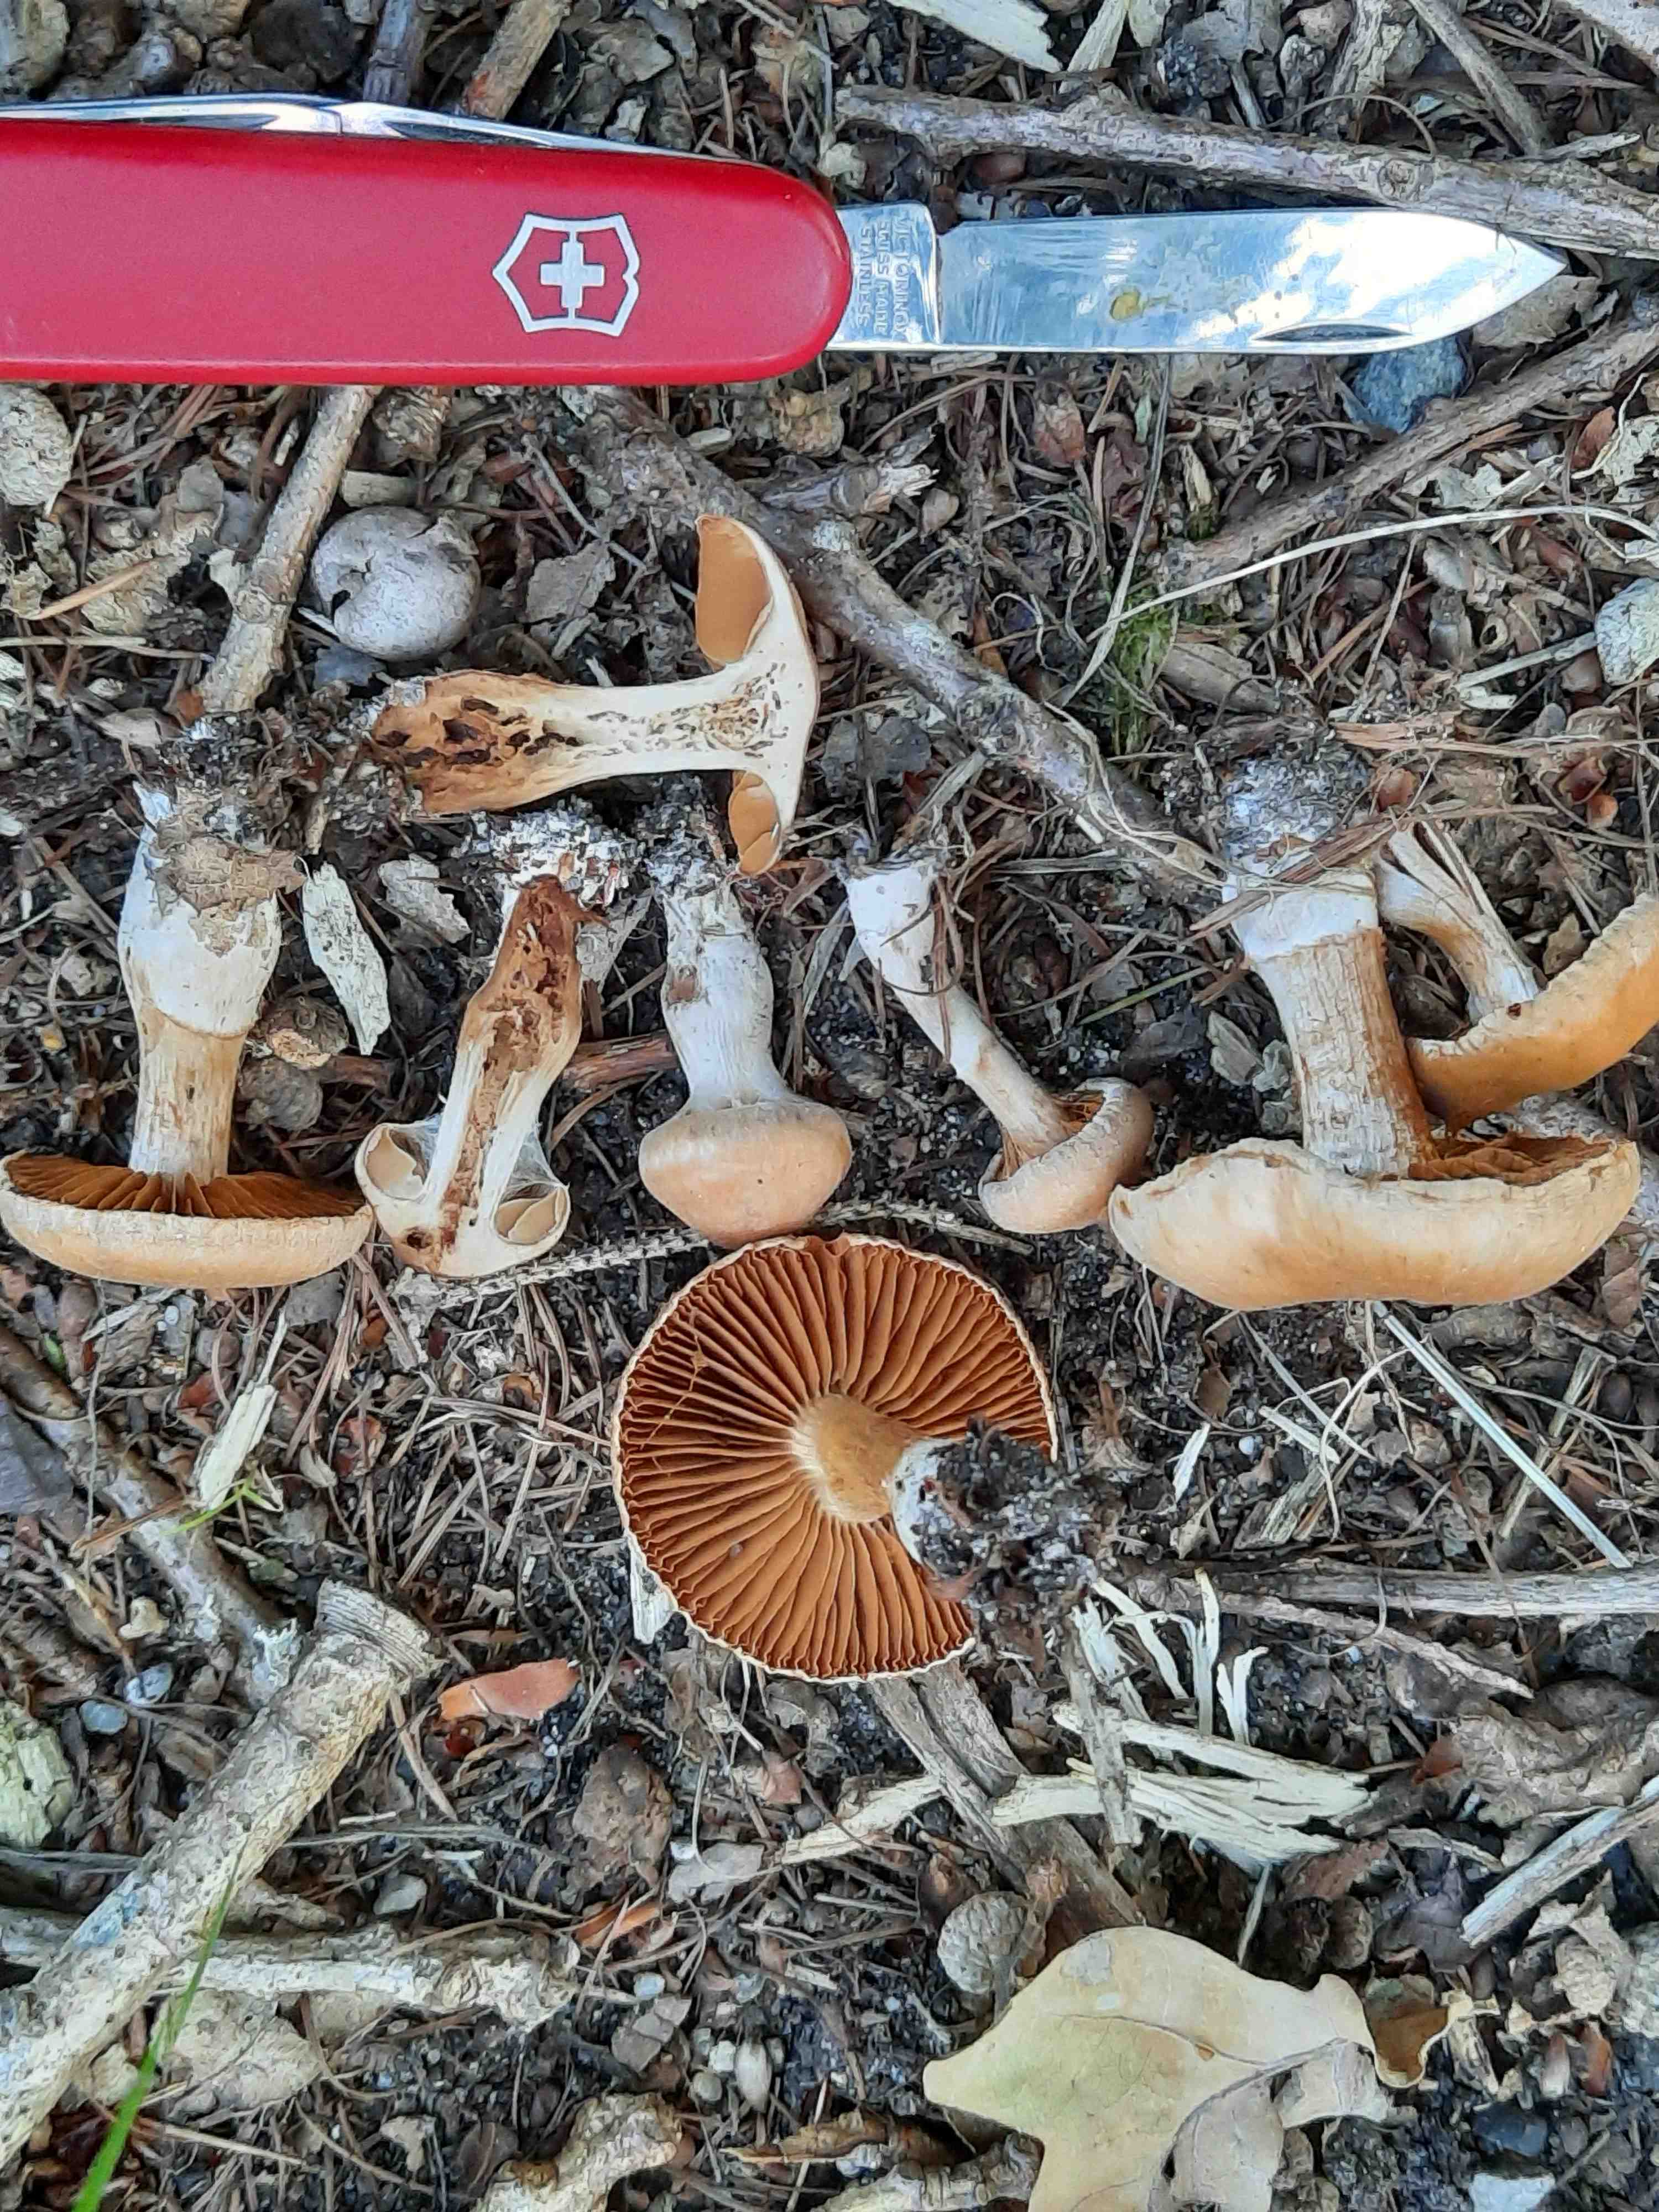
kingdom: Fungi
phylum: Basidiomycota
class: Agaricomycetes
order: Agaricales
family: Cortinariaceae
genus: Cortinarius
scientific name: Cortinarius epipurrus
